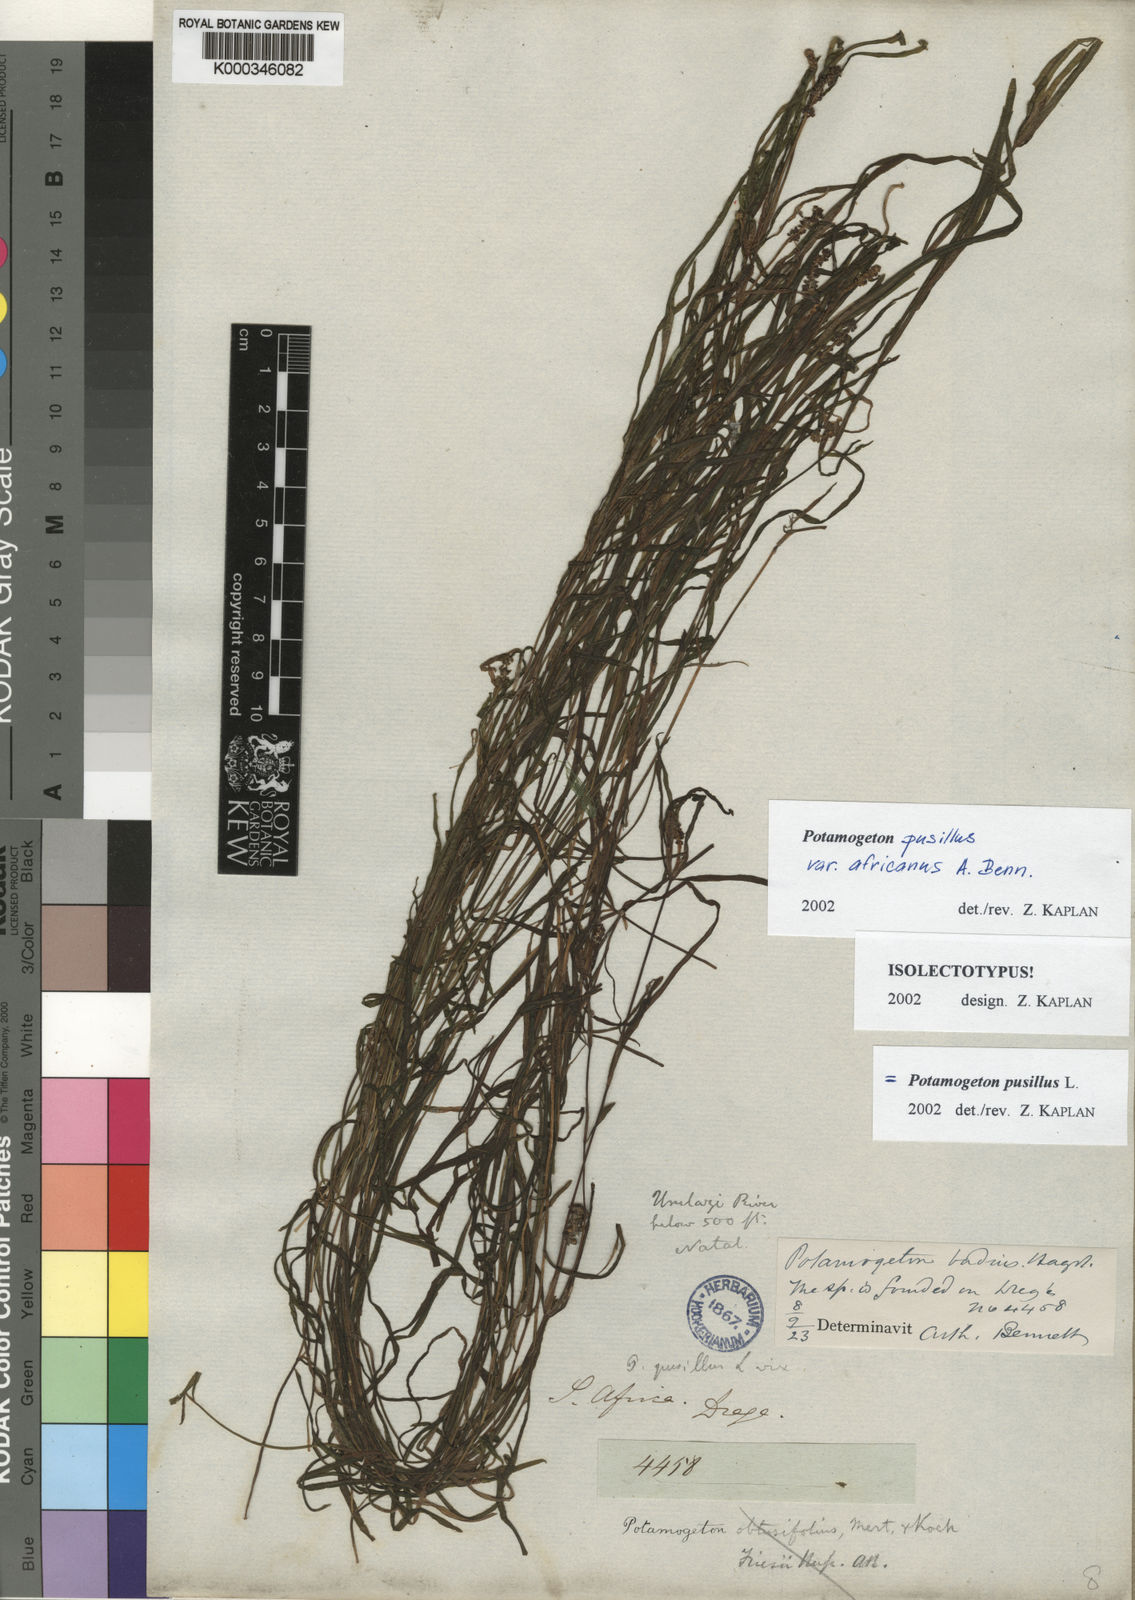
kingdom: Plantae
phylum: Tracheophyta
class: Liliopsida
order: Alismatales
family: Potamogetonaceae
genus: Potamogeton
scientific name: Potamogeton pusillus
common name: Lesser pondweed
